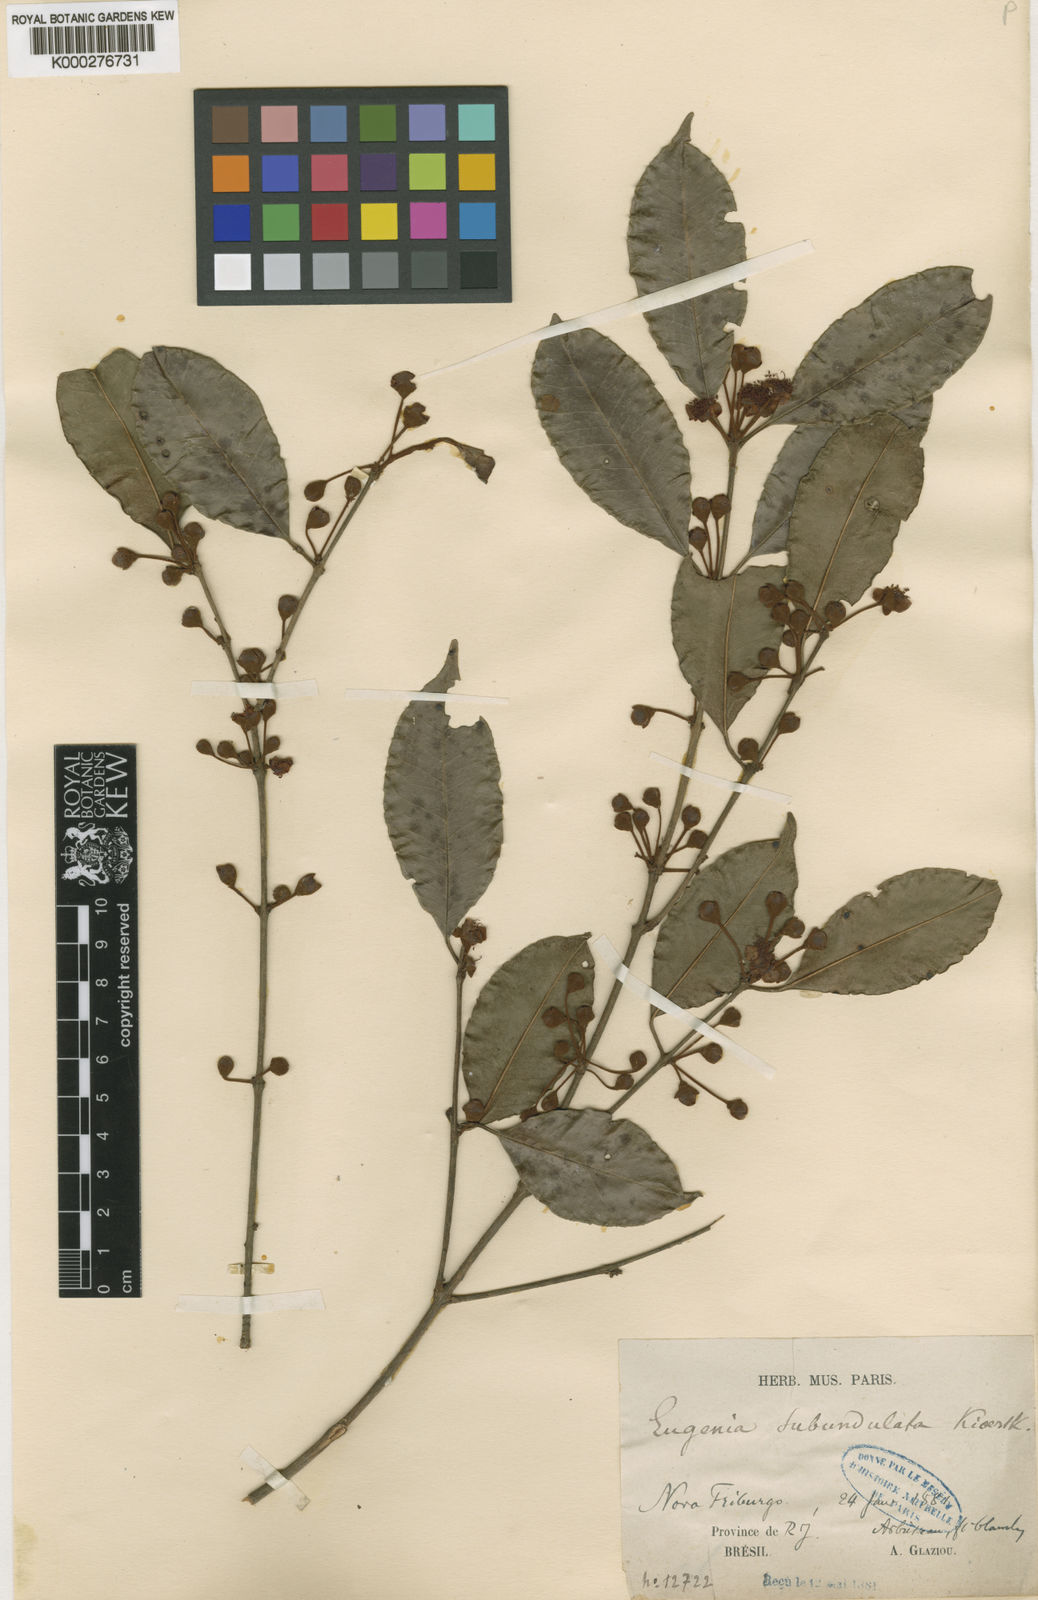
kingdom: Plantae
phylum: Tracheophyta
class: Magnoliopsida
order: Myrtales
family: Myrtaceae
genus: Eugenia
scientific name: Eugenia subundulata
